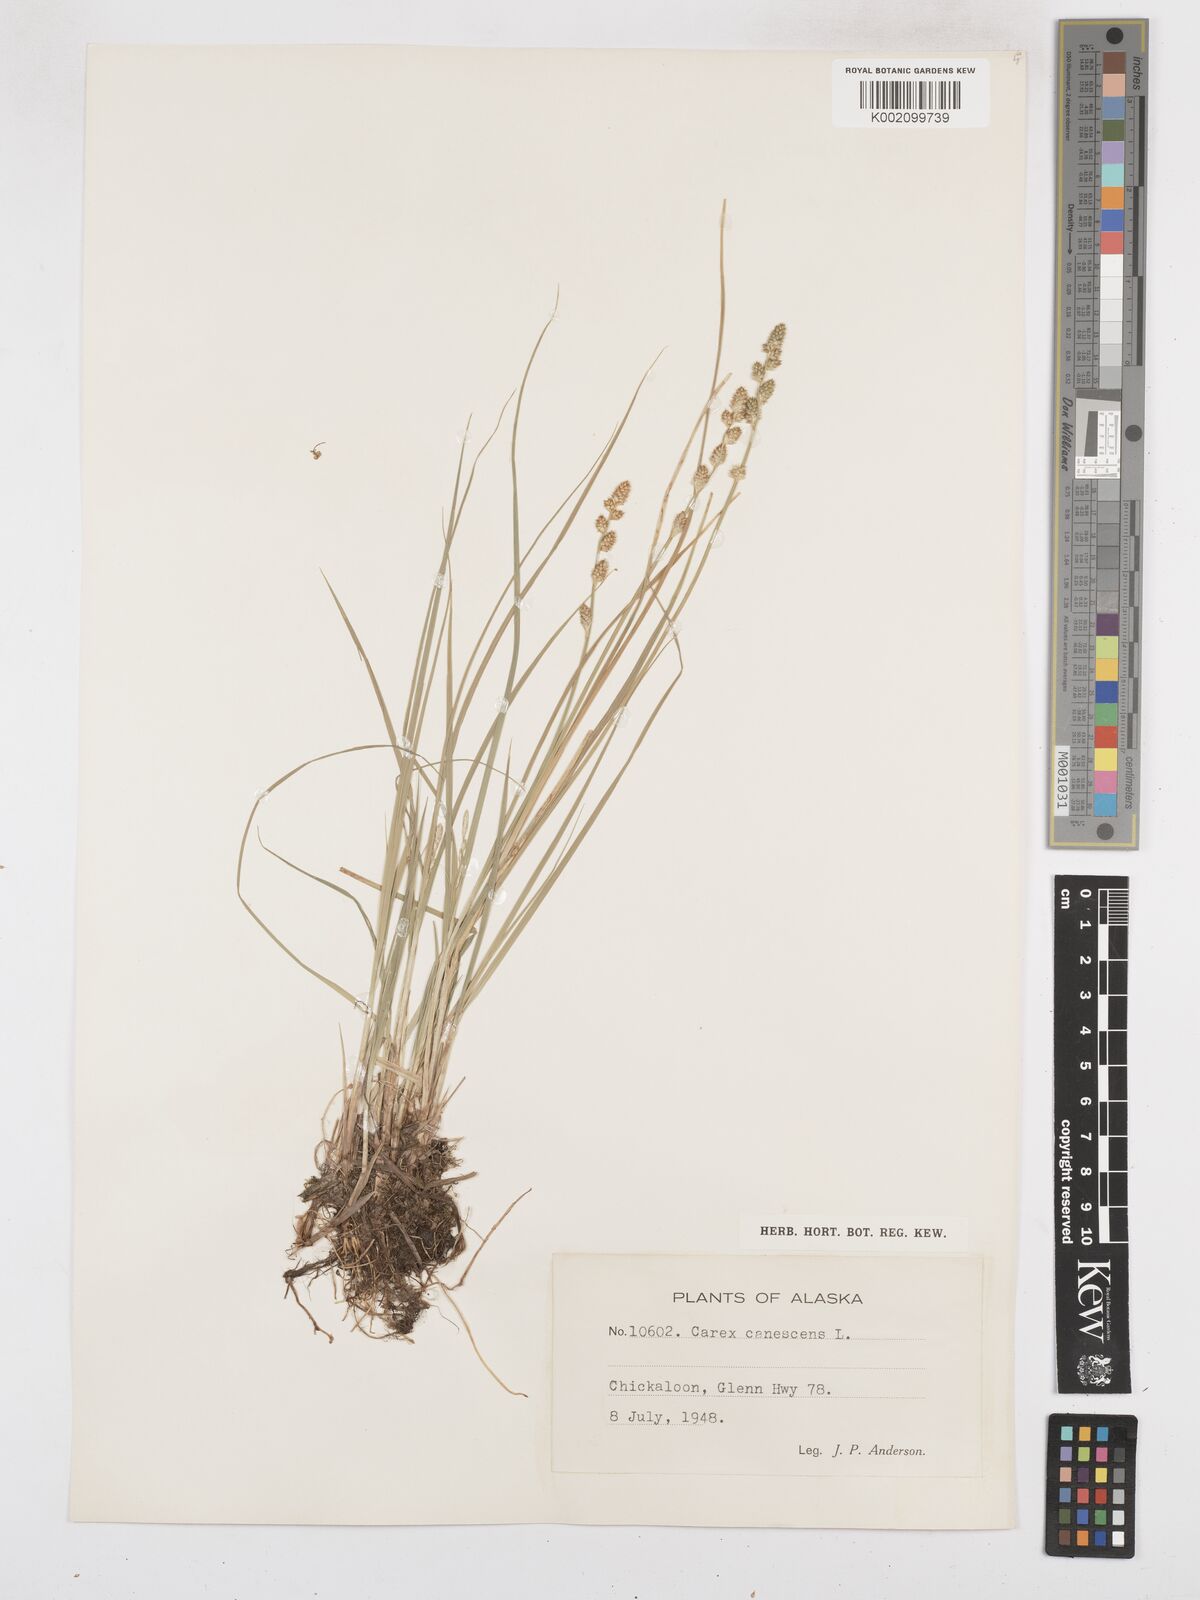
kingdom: Plantae
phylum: Tracheophyta
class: Liliopsida
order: Poales
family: Cyperaceae
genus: Carex
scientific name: Carex curta
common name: White sedge
